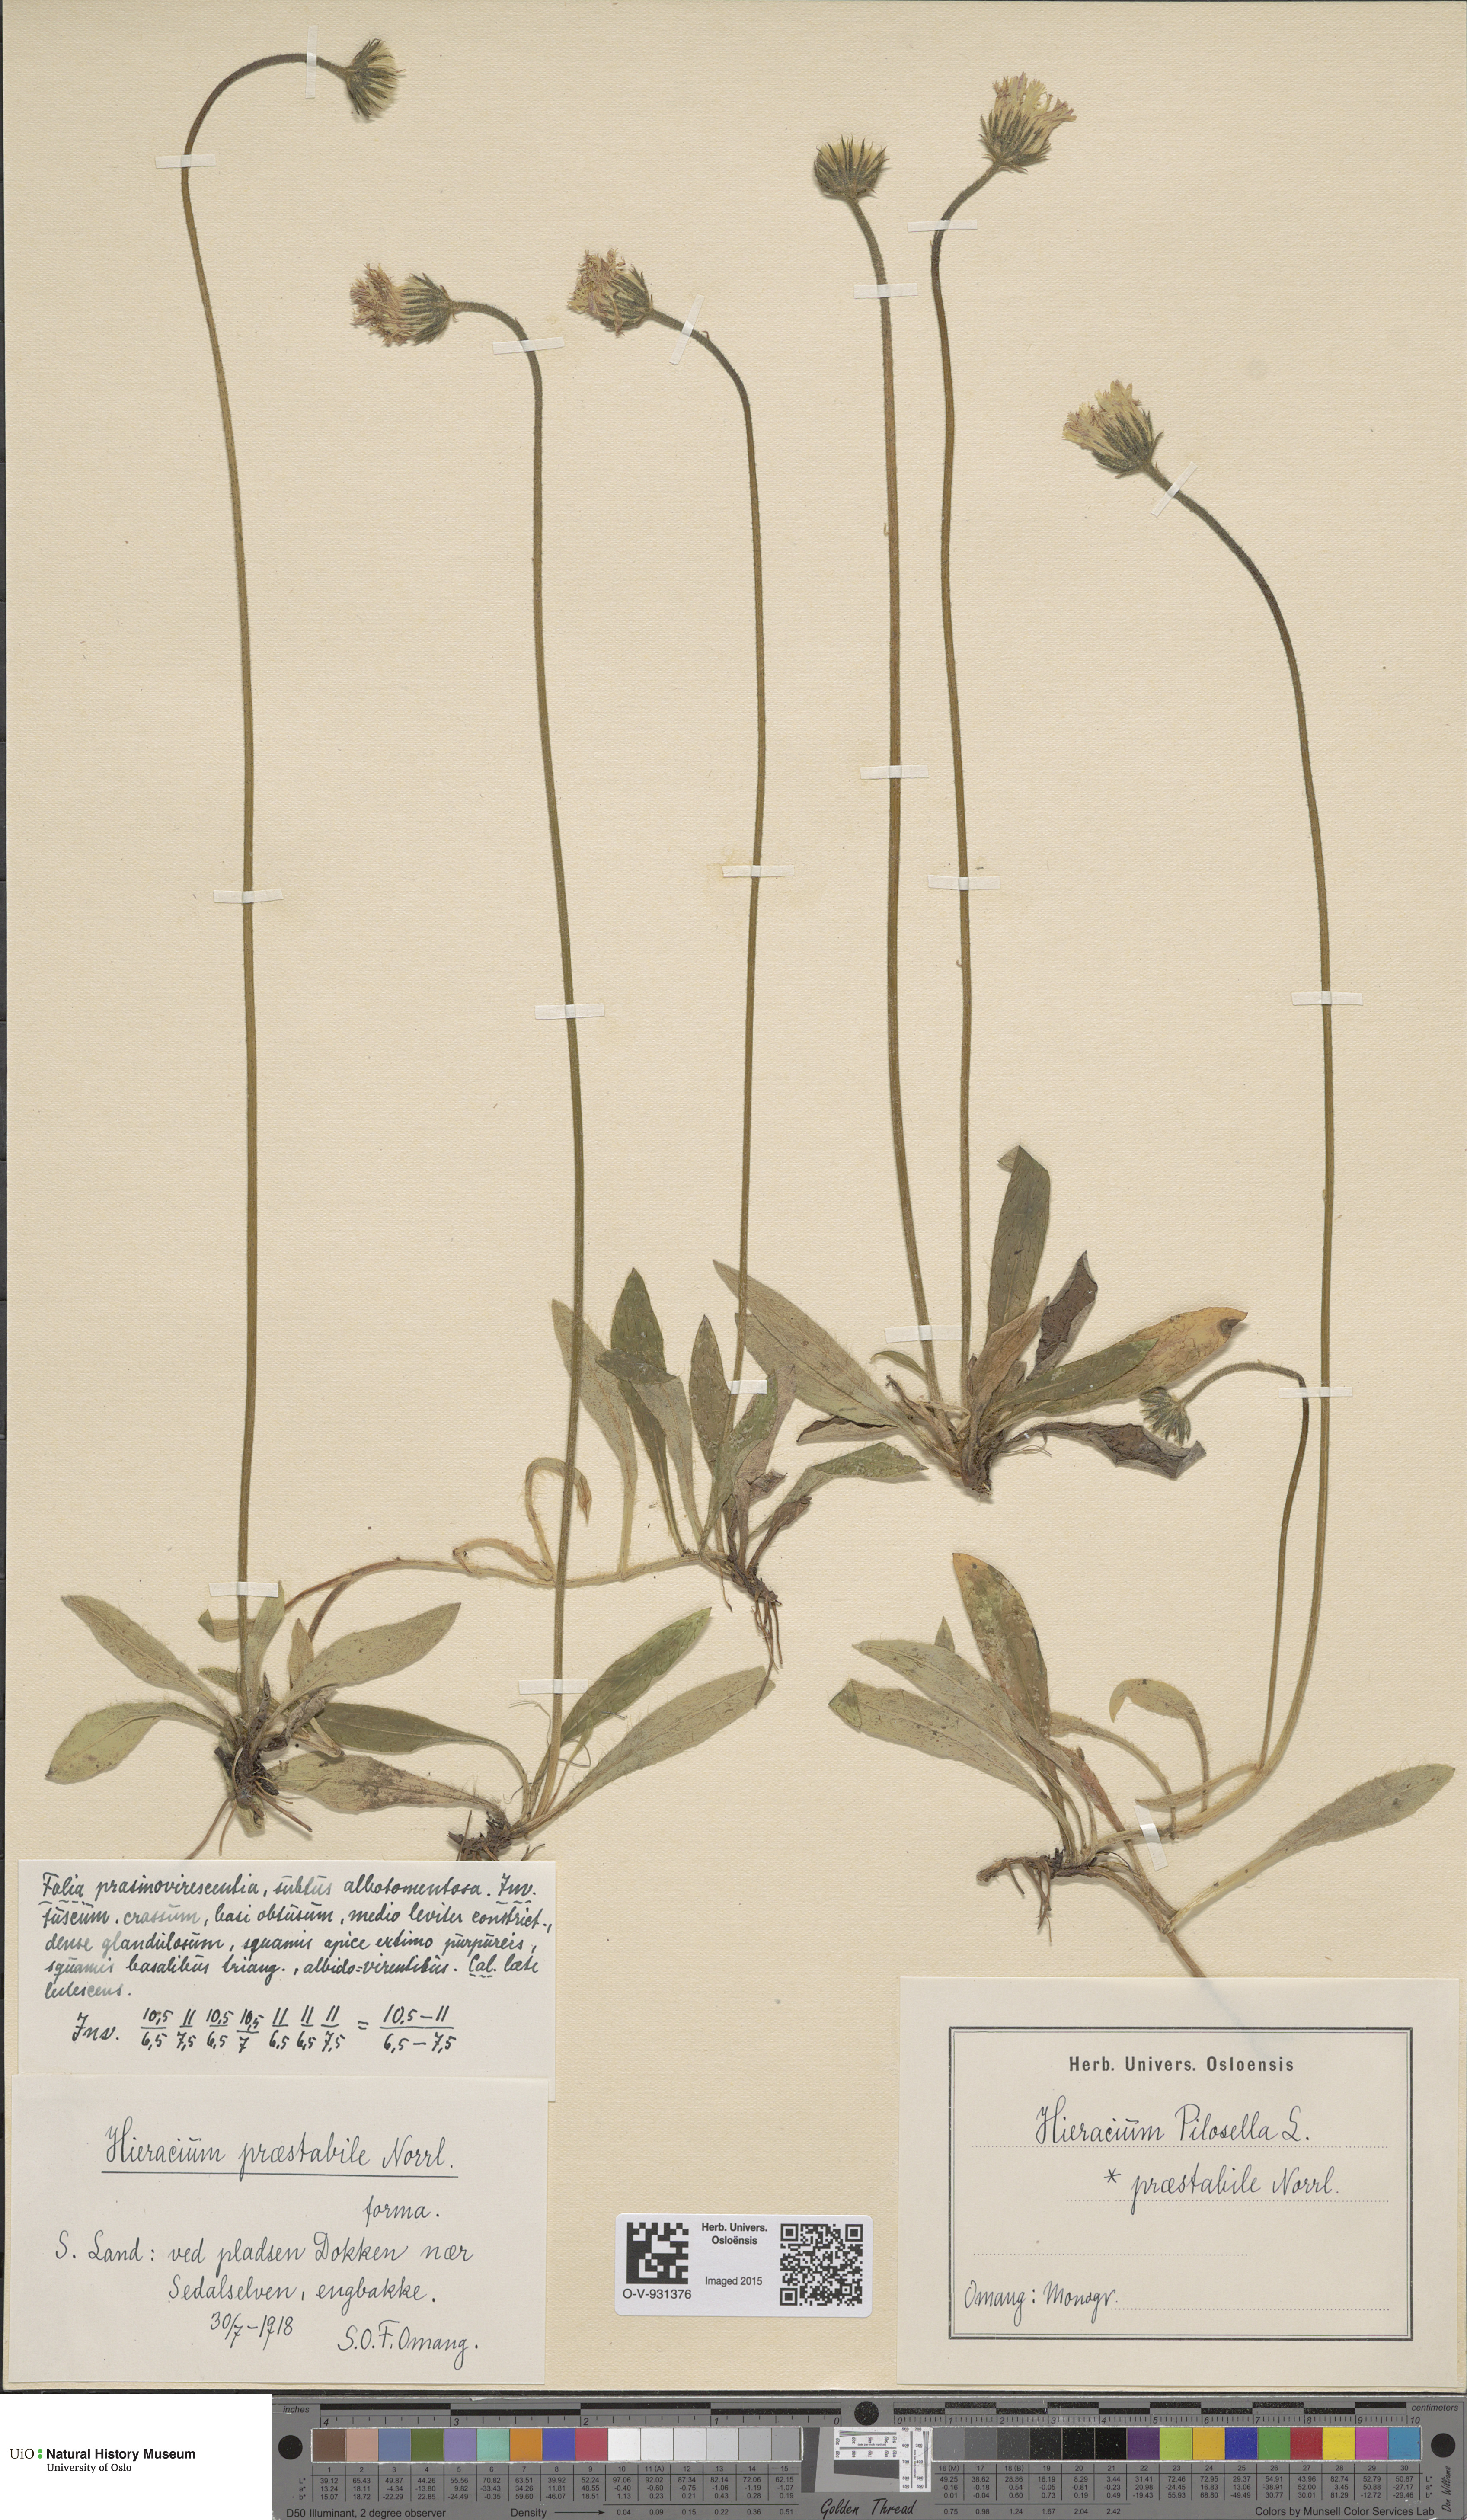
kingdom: Plantae
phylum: Tracheophyta
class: Magnoliopsida
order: Asterales
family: Asteraceae
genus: Pilosella
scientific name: Pilosella officinarum
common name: Mouse-ear hawkweed
